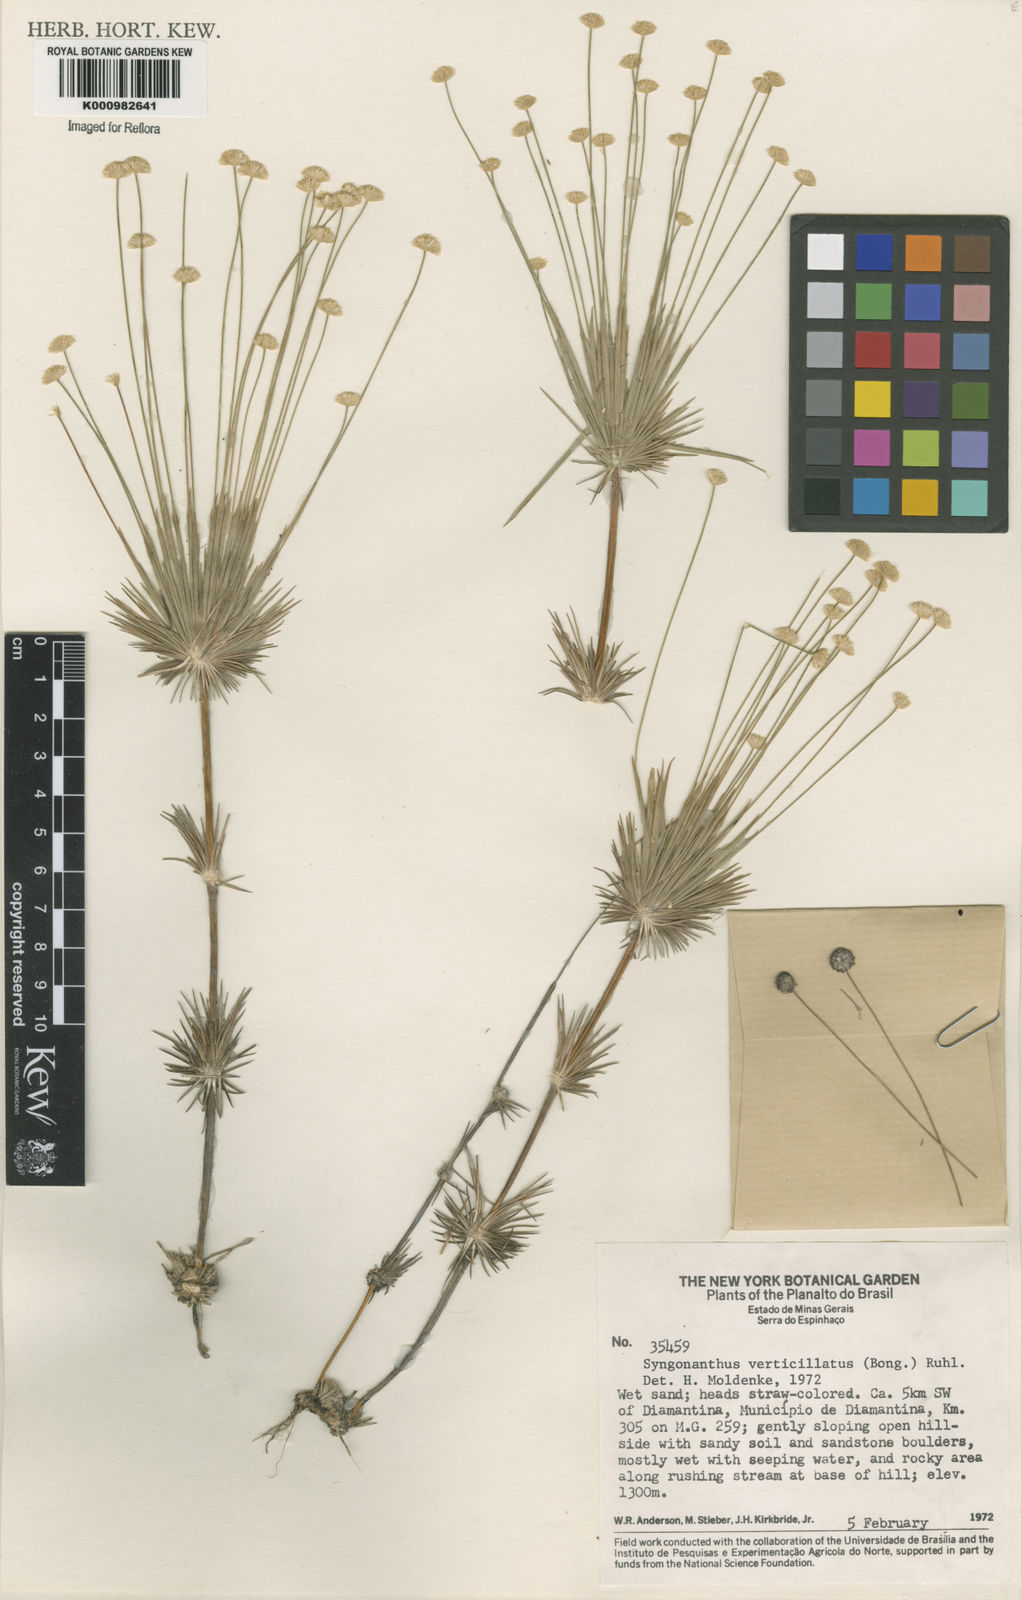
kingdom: Plantae
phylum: Tracheophyta
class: Liliopsida
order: Poales
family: Eriocaulaceae
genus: Syngonanthus
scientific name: Syngonanthus verticillatus
